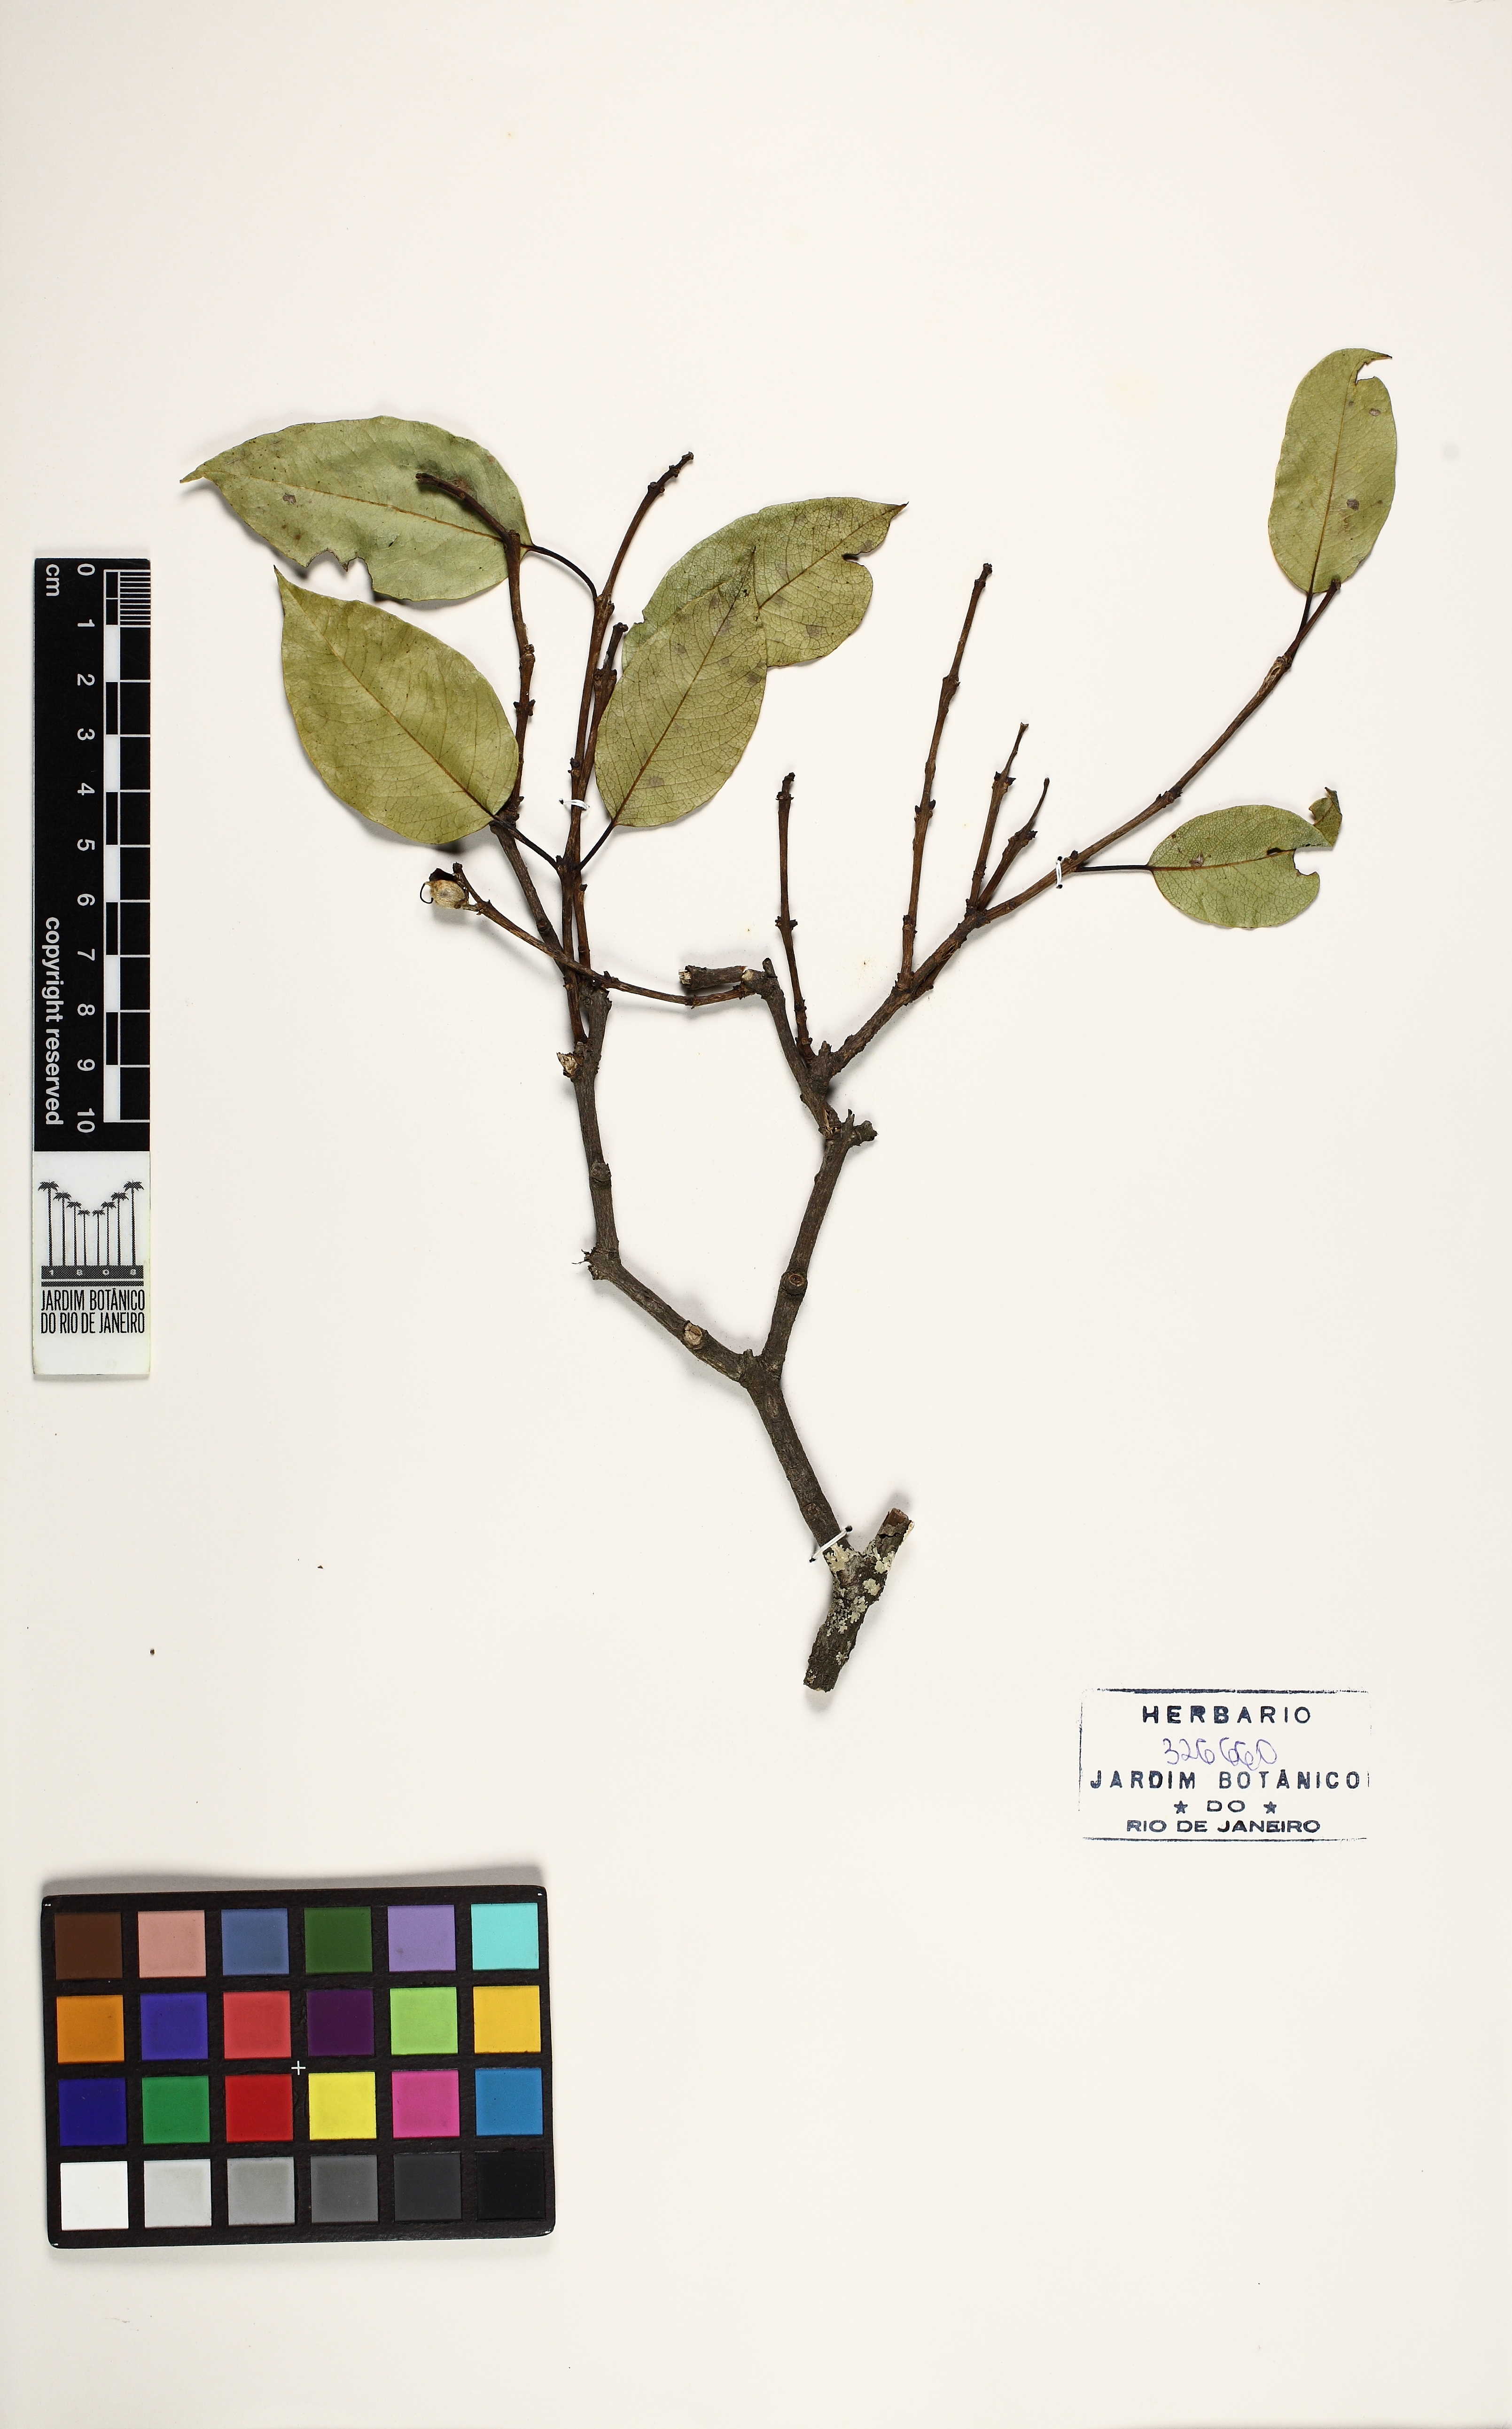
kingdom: Plantae
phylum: Tracheophyta
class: Magnoliopsida
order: Myrtales
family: Vochysiaceae
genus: Qualea
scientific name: Qualea glaziovii
